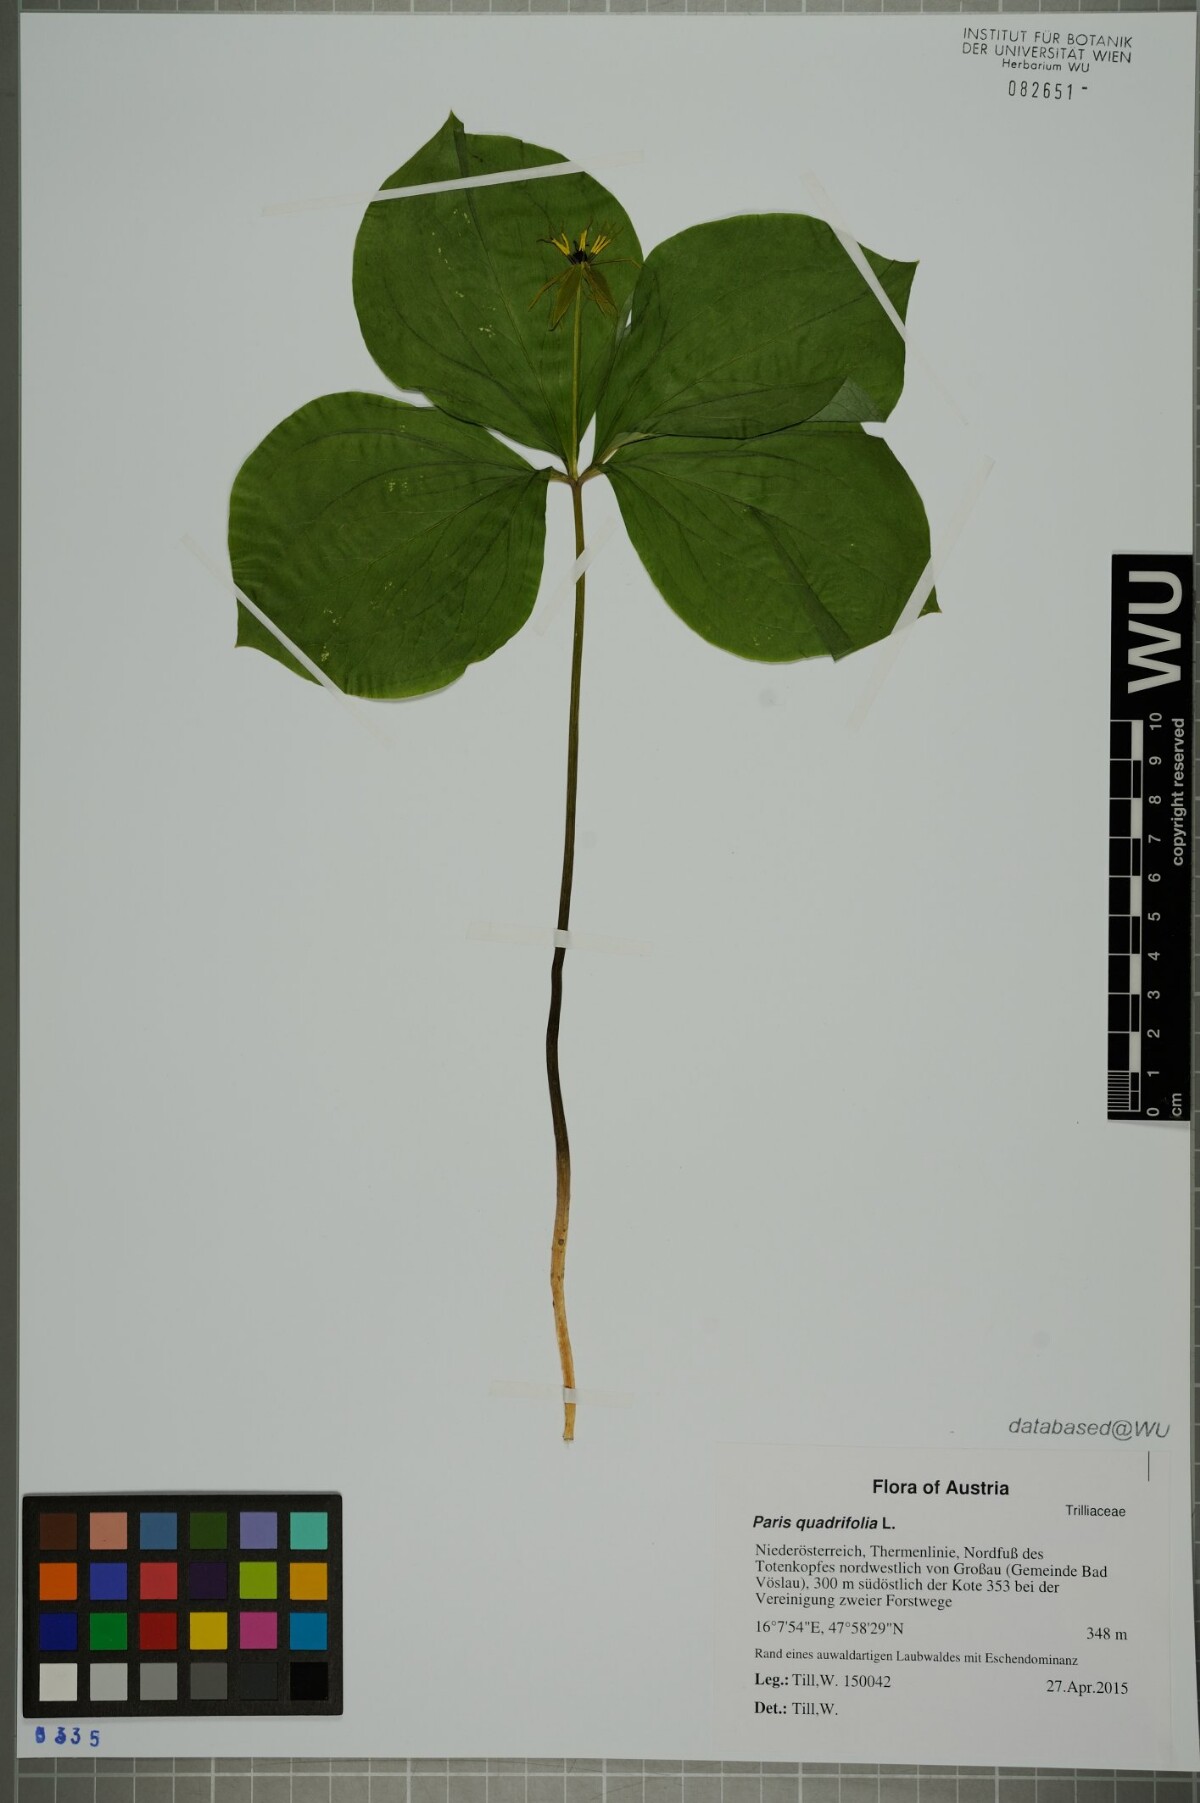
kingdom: Plantae
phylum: Tracheophyta
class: Liliopsida
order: Liliales
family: Melanthiaceae
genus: Paris
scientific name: Paris quadrifolia
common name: Herb-paris
